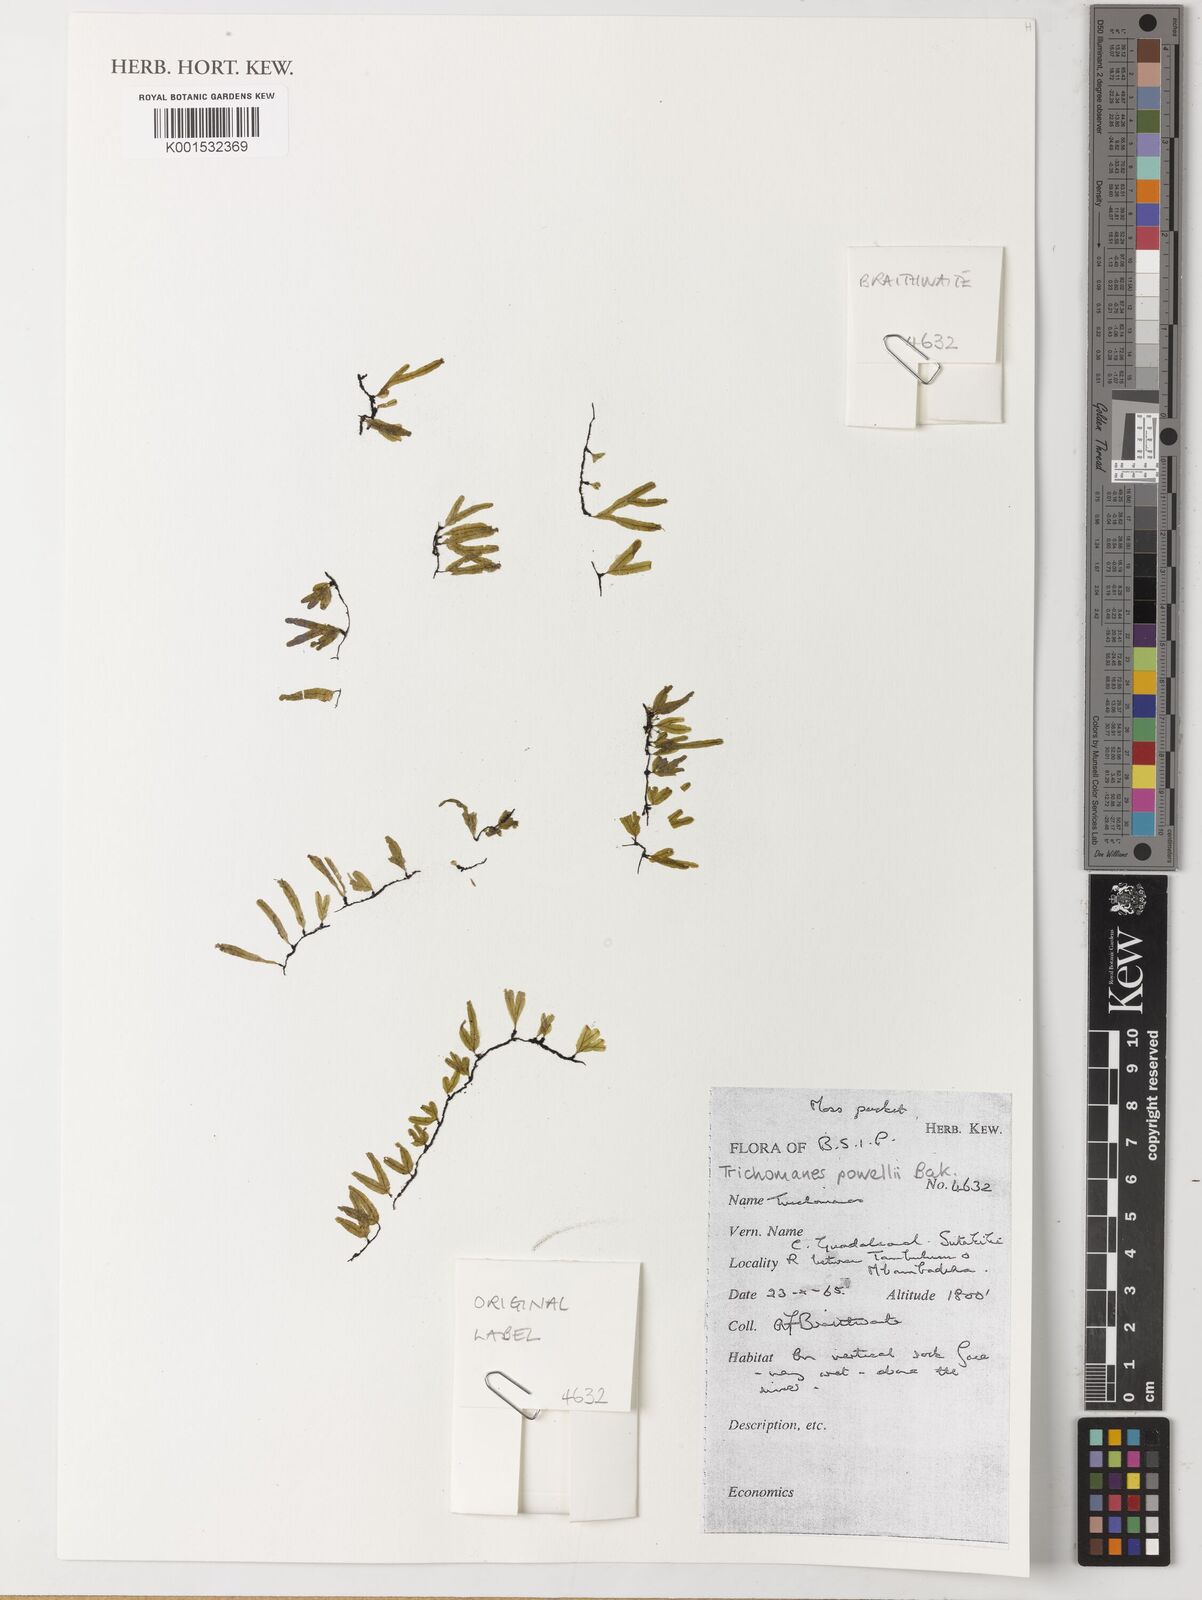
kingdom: Plantae
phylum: Tracheophyta
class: Polypodiopsida
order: Hymenophyllales
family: Hymenophyllaceae
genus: Crepidomanes
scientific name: Crepidomanes powellii
